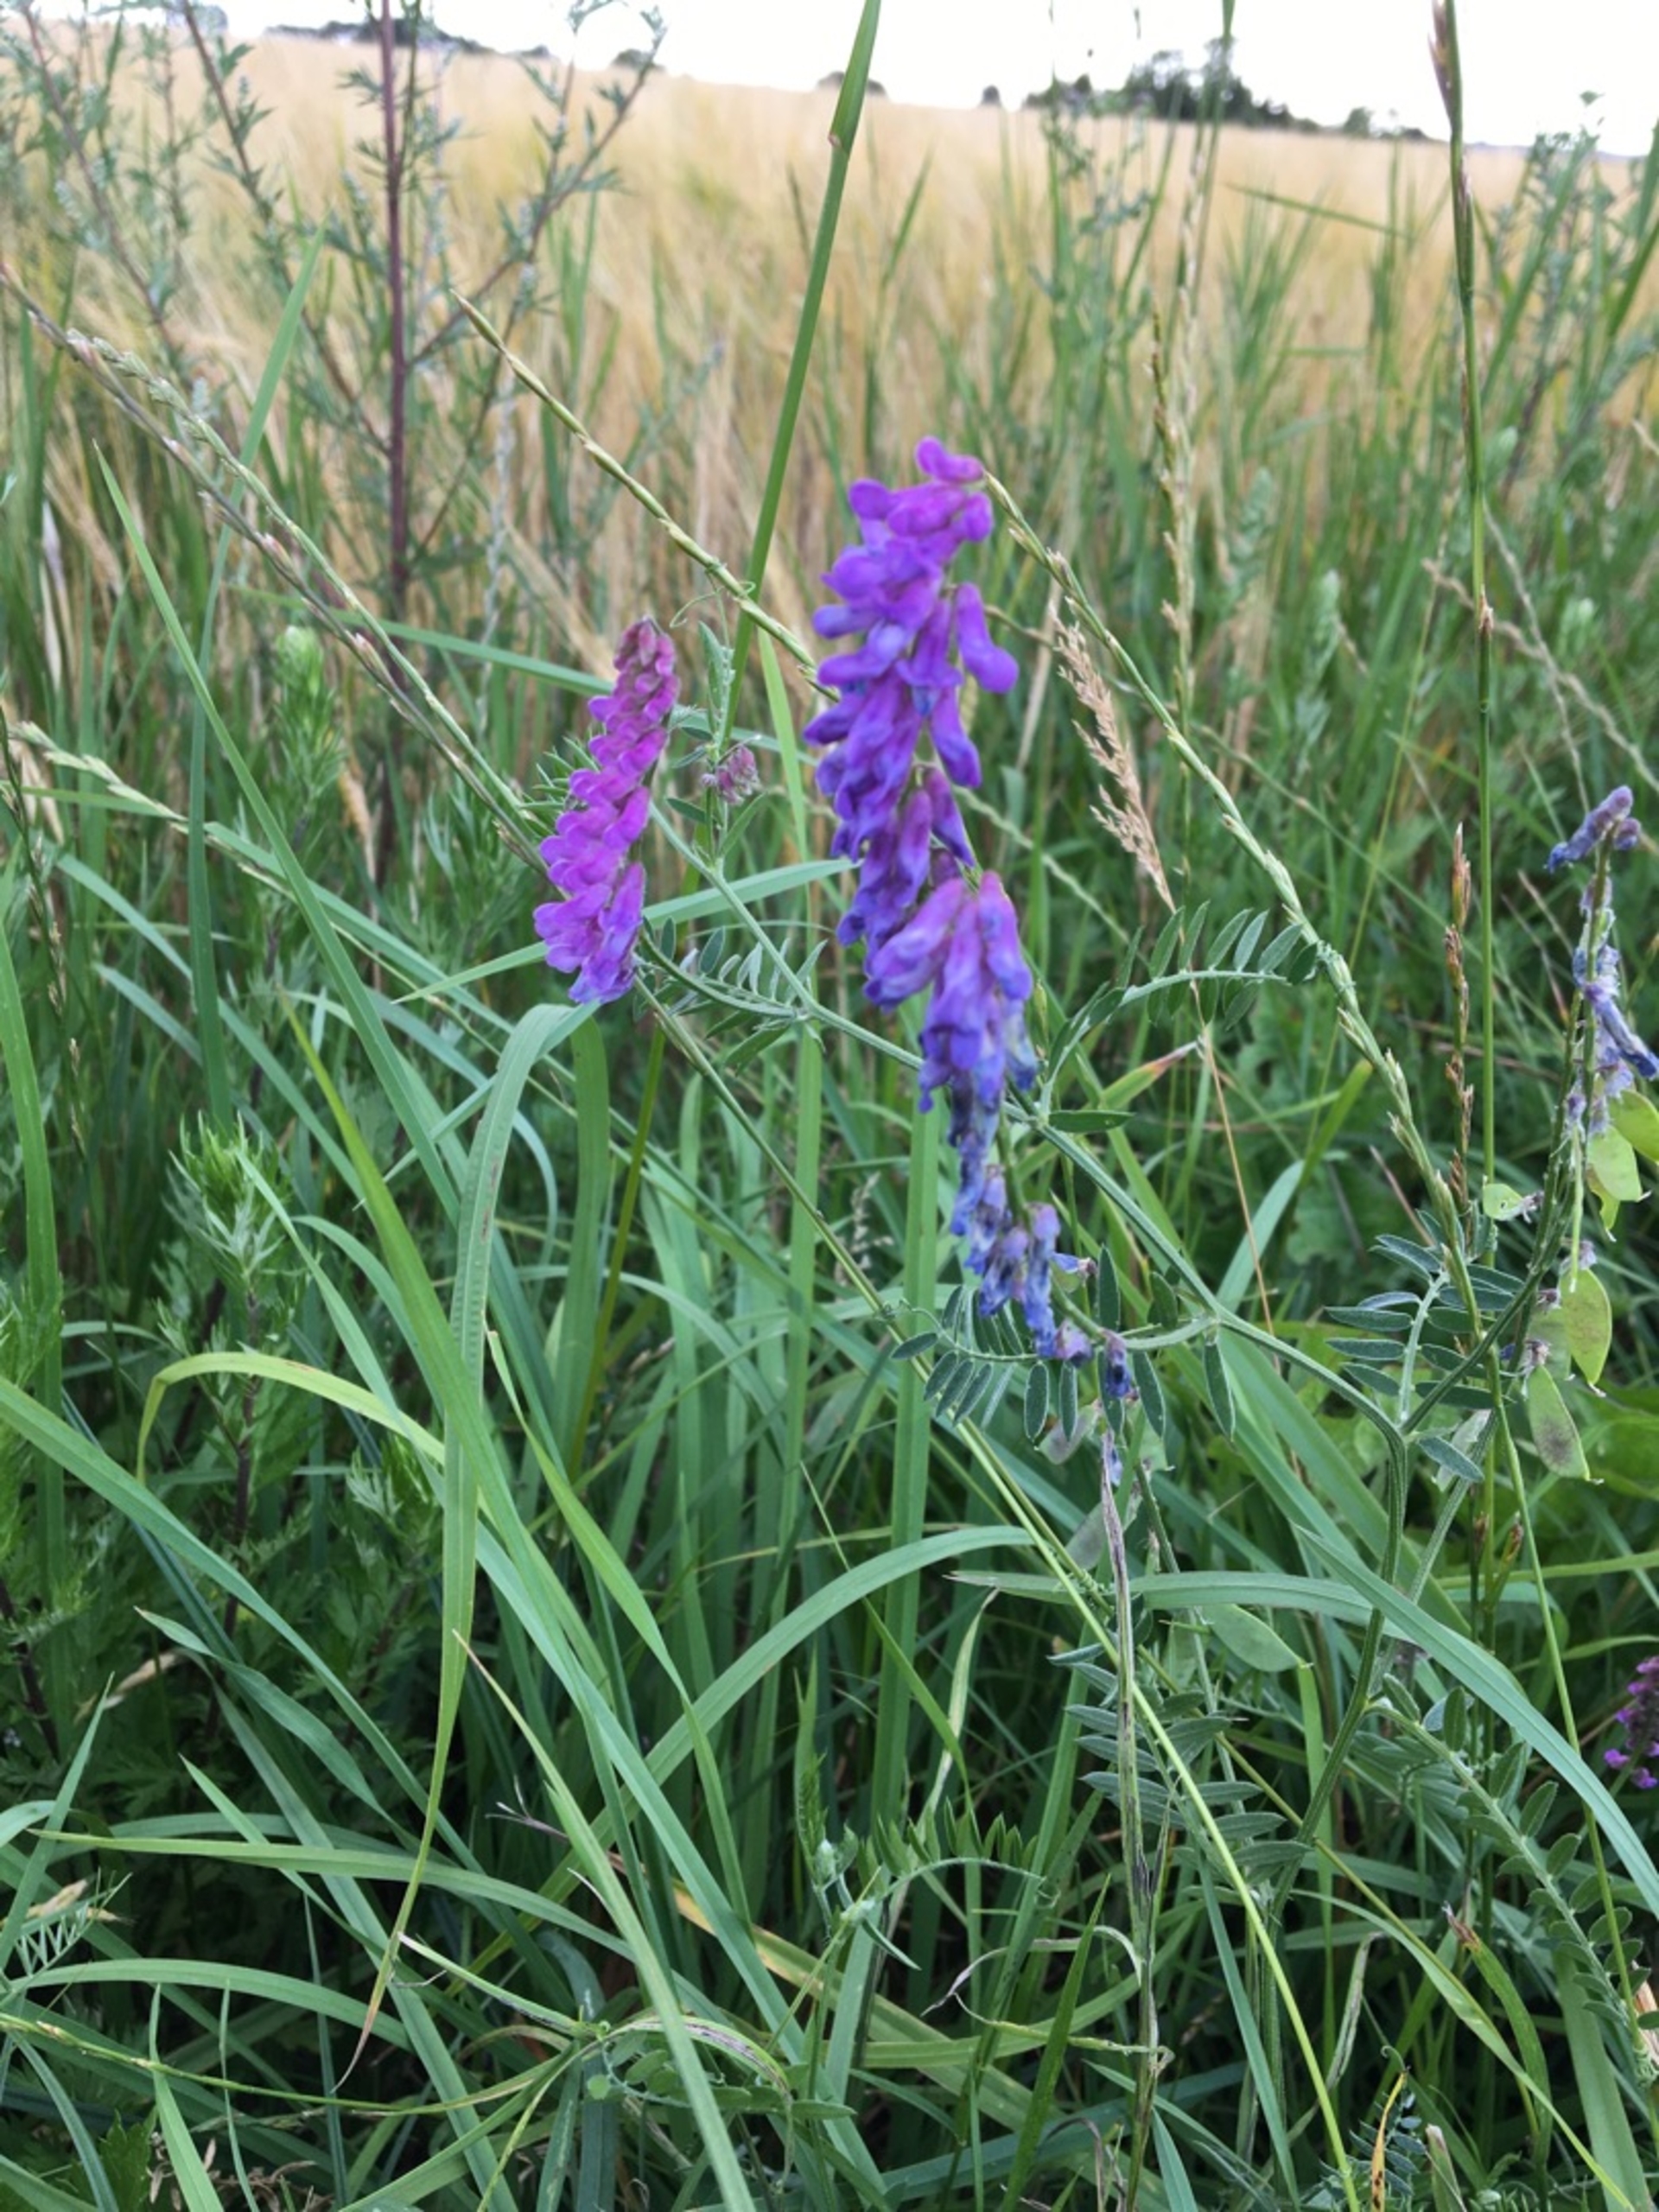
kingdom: Plantae
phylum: Tracheophyta
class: Magnoliopsida
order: Fabales
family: Fabaceae
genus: Vicia
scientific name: Vicia cracca
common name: Muse-vikke
